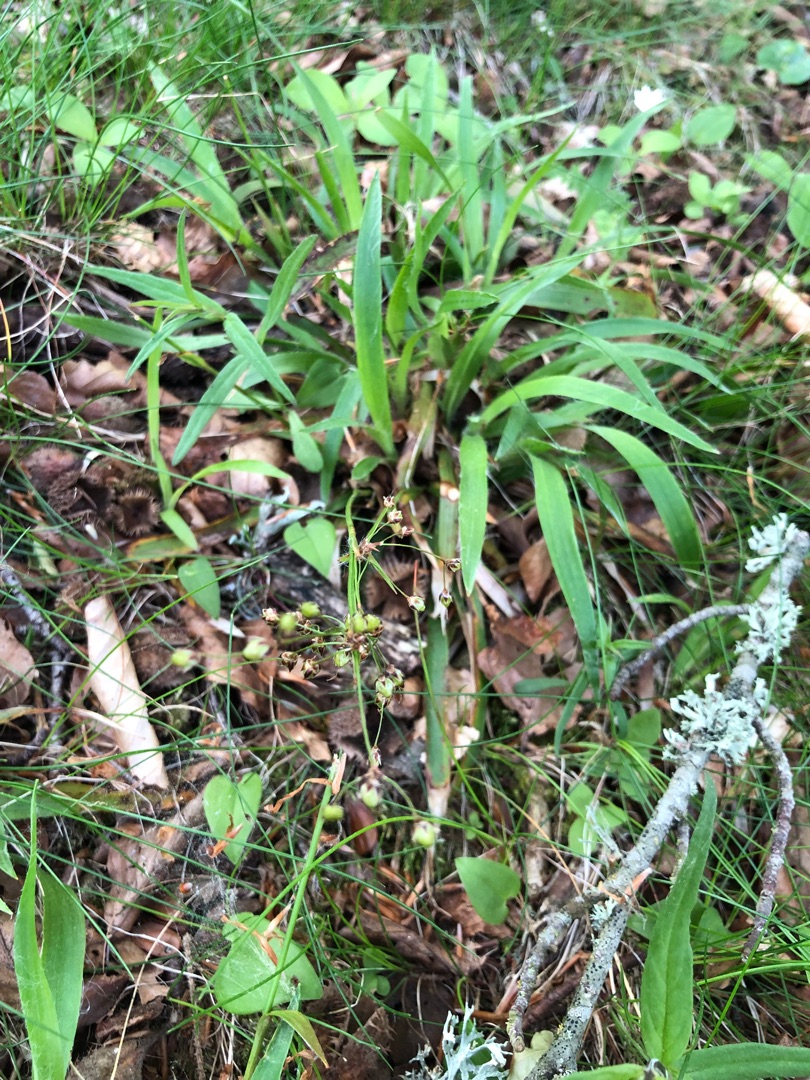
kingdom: Plantae
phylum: Tracheophyta
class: Liliopsida
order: Poales
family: Juncaceae
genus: Luzula
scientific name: Luzula pilosa
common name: Håret frytle
